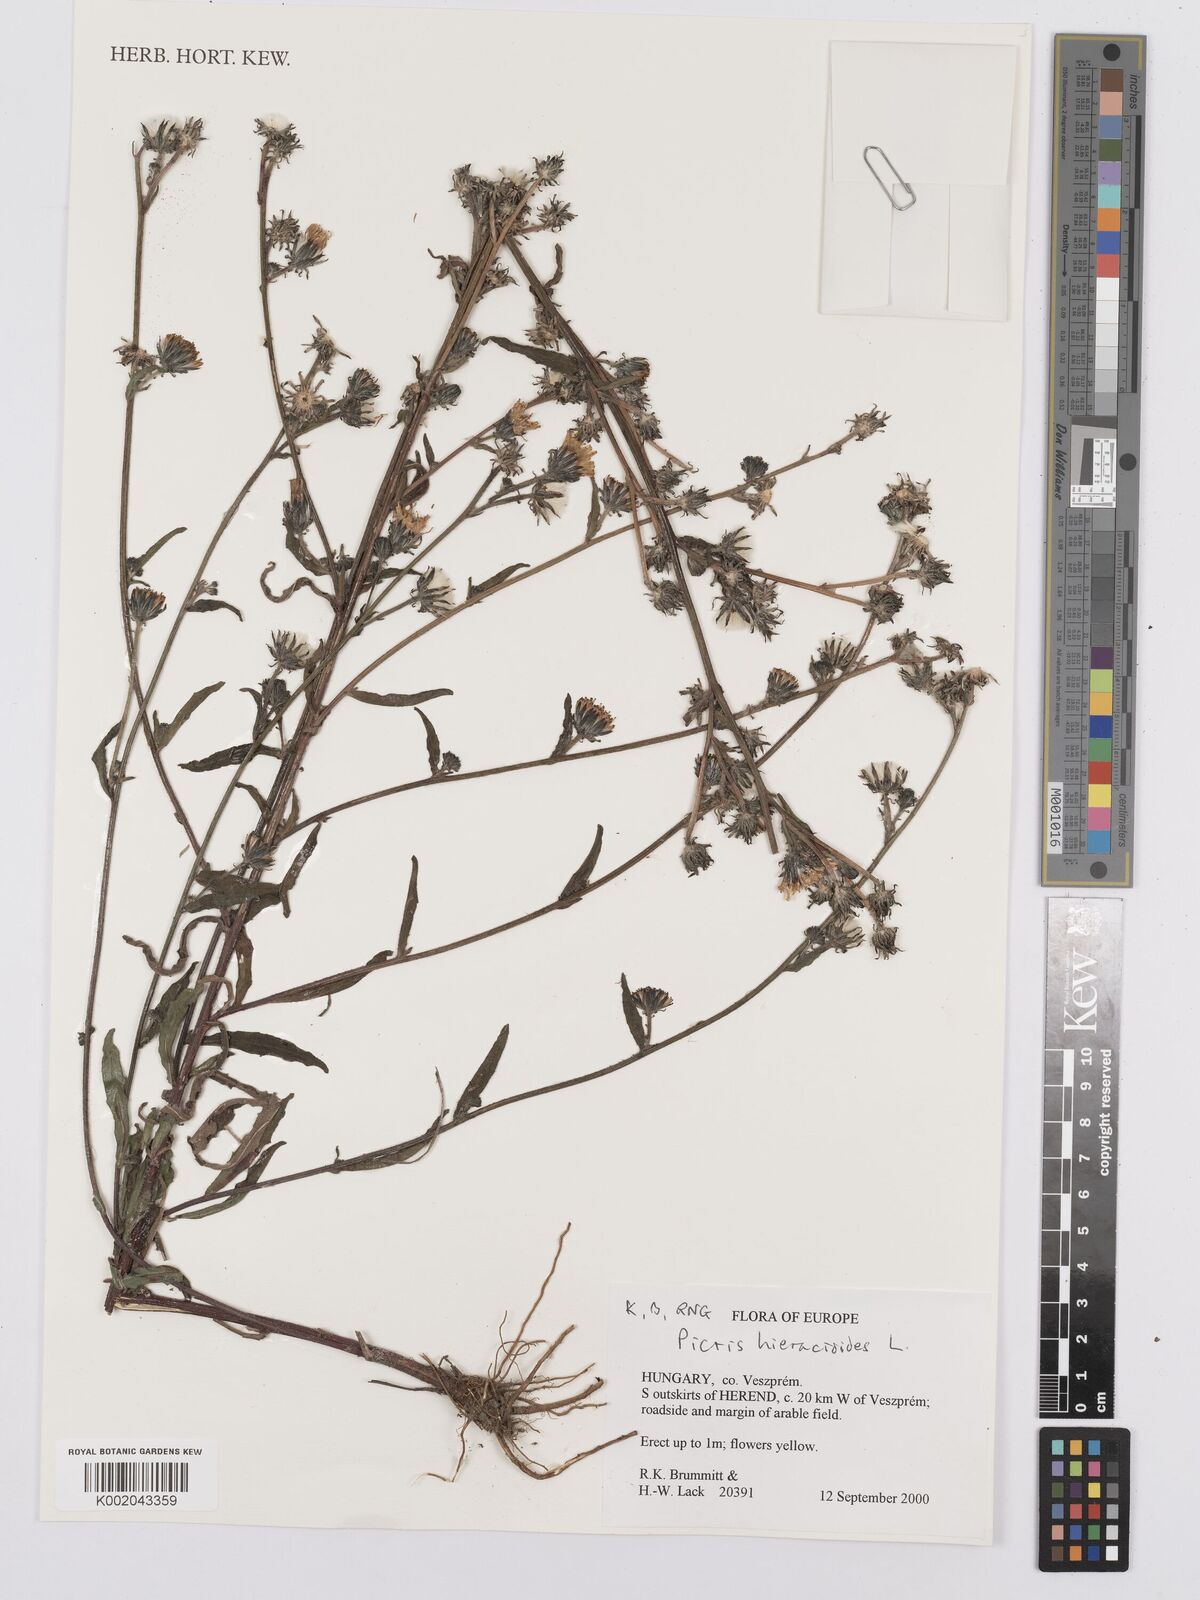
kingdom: Plantae
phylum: Tracheophyta
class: Magnoliopsida
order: Asterales
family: Asteraceae
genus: Picris
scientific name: Picris hieracioides
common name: Hawkweed oxtongue
